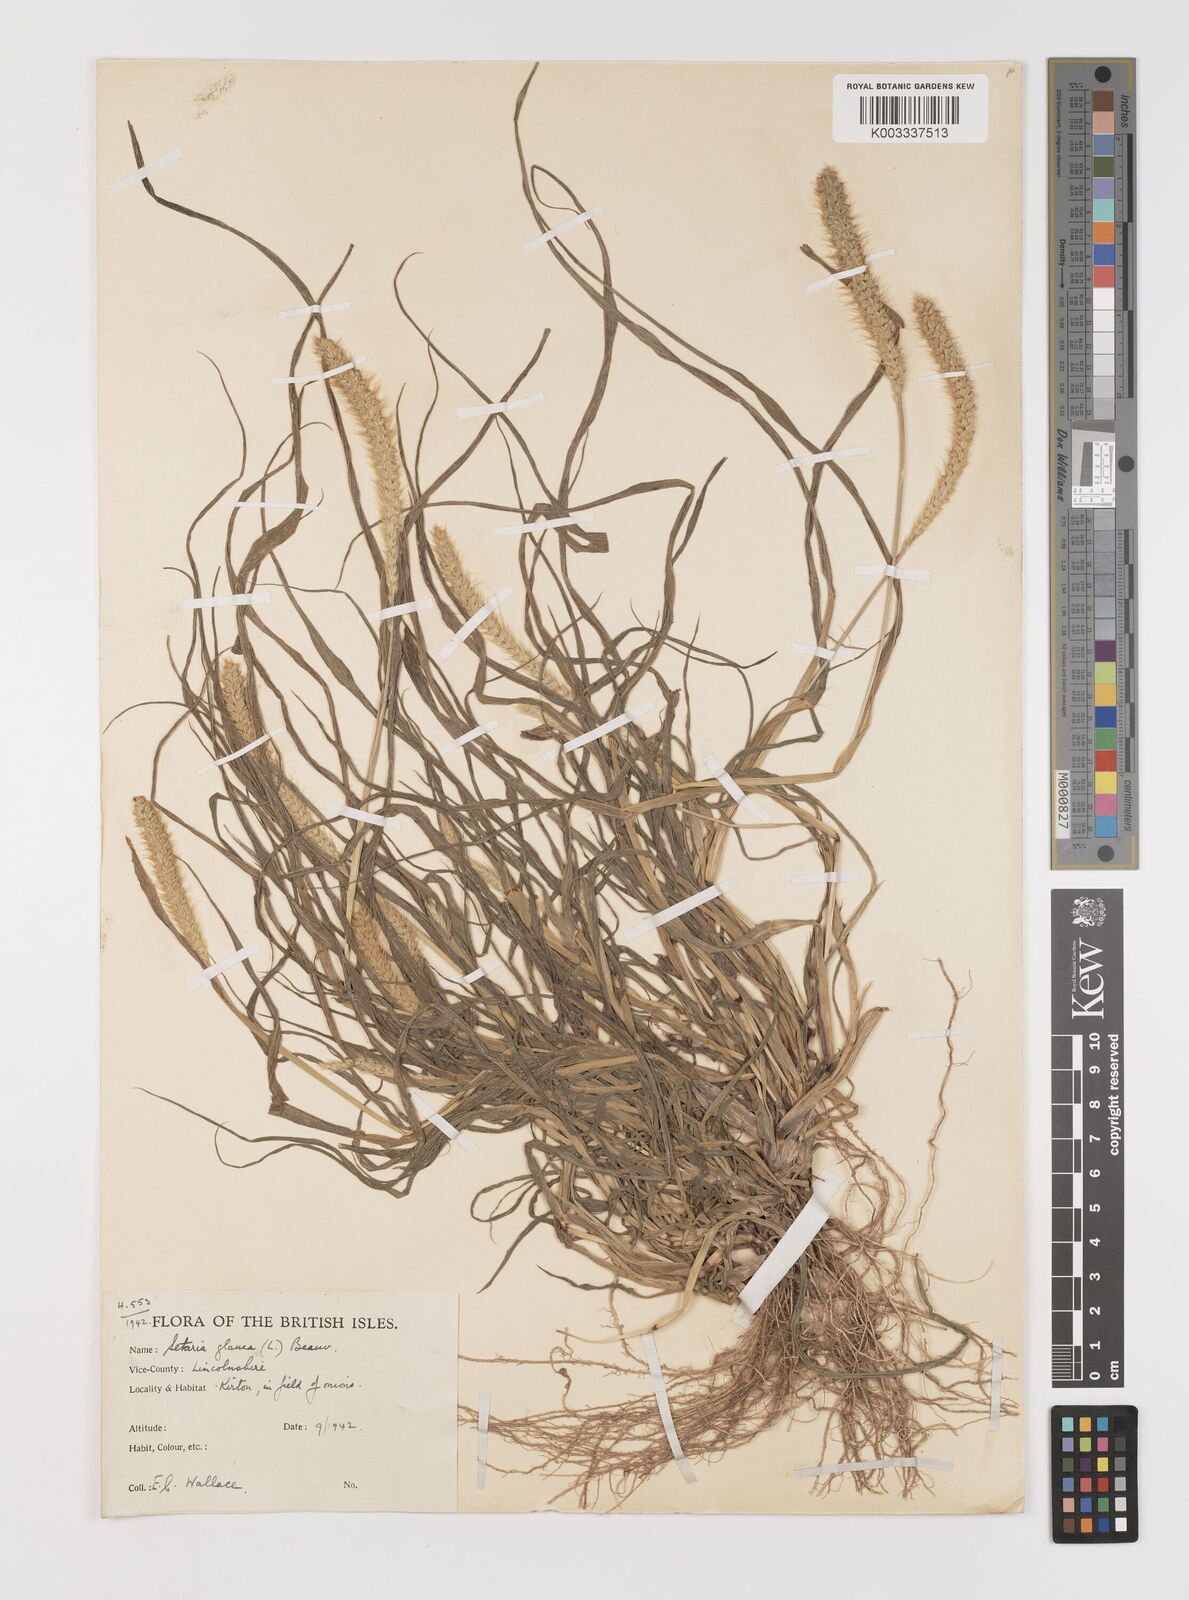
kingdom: Plantae
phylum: Tracheophyta
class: Liliopsida
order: Poales
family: Poaceae
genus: Setaria
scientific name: Setaria pumila
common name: Yellow bristle-grass
